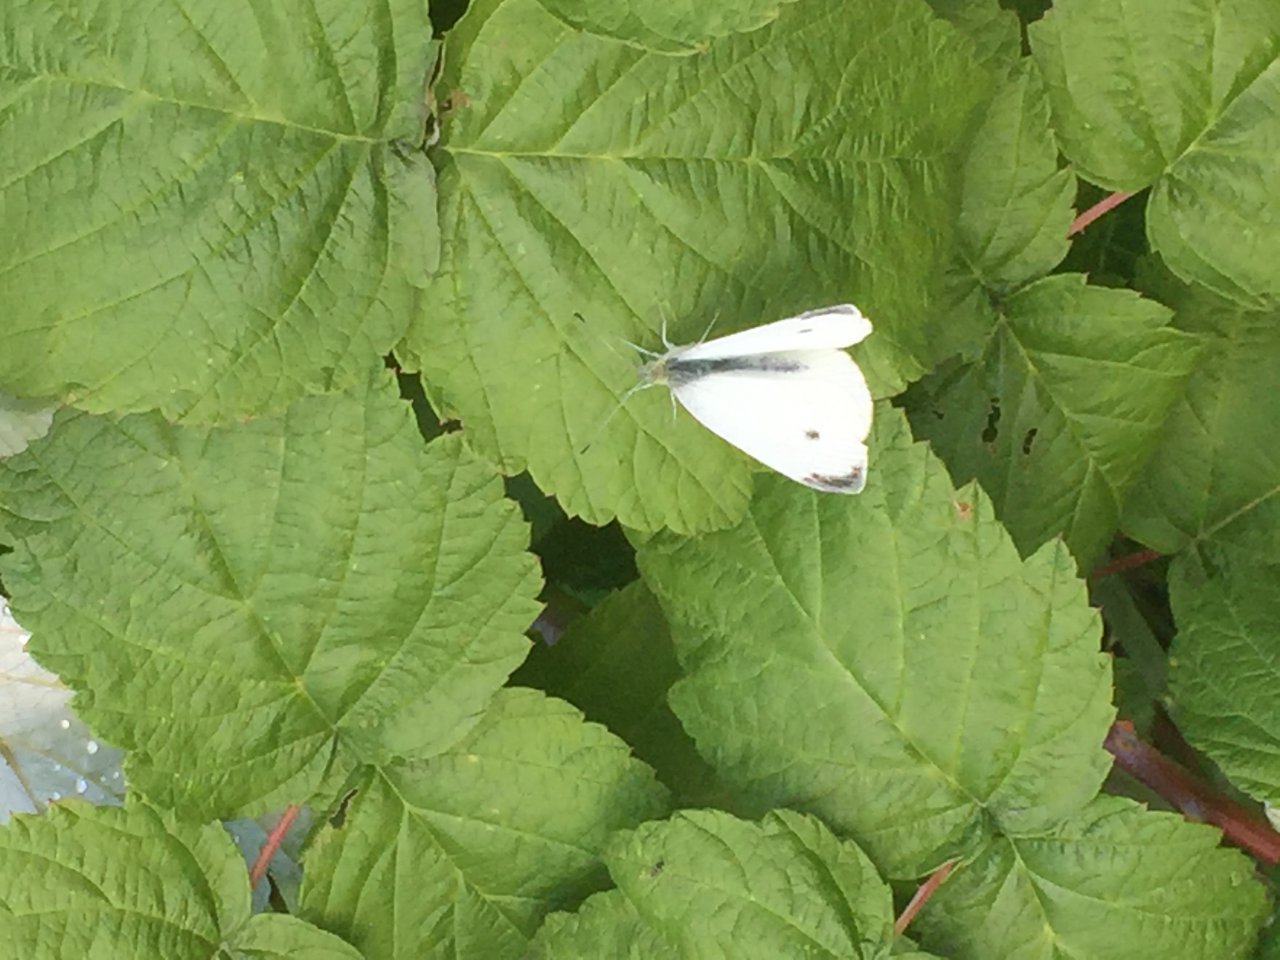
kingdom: Animalia
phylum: Arthropoda
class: Insecta
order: Lepidoptera
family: Pieridae
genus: Pieris
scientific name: Pieris rapae
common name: Cabbage White
